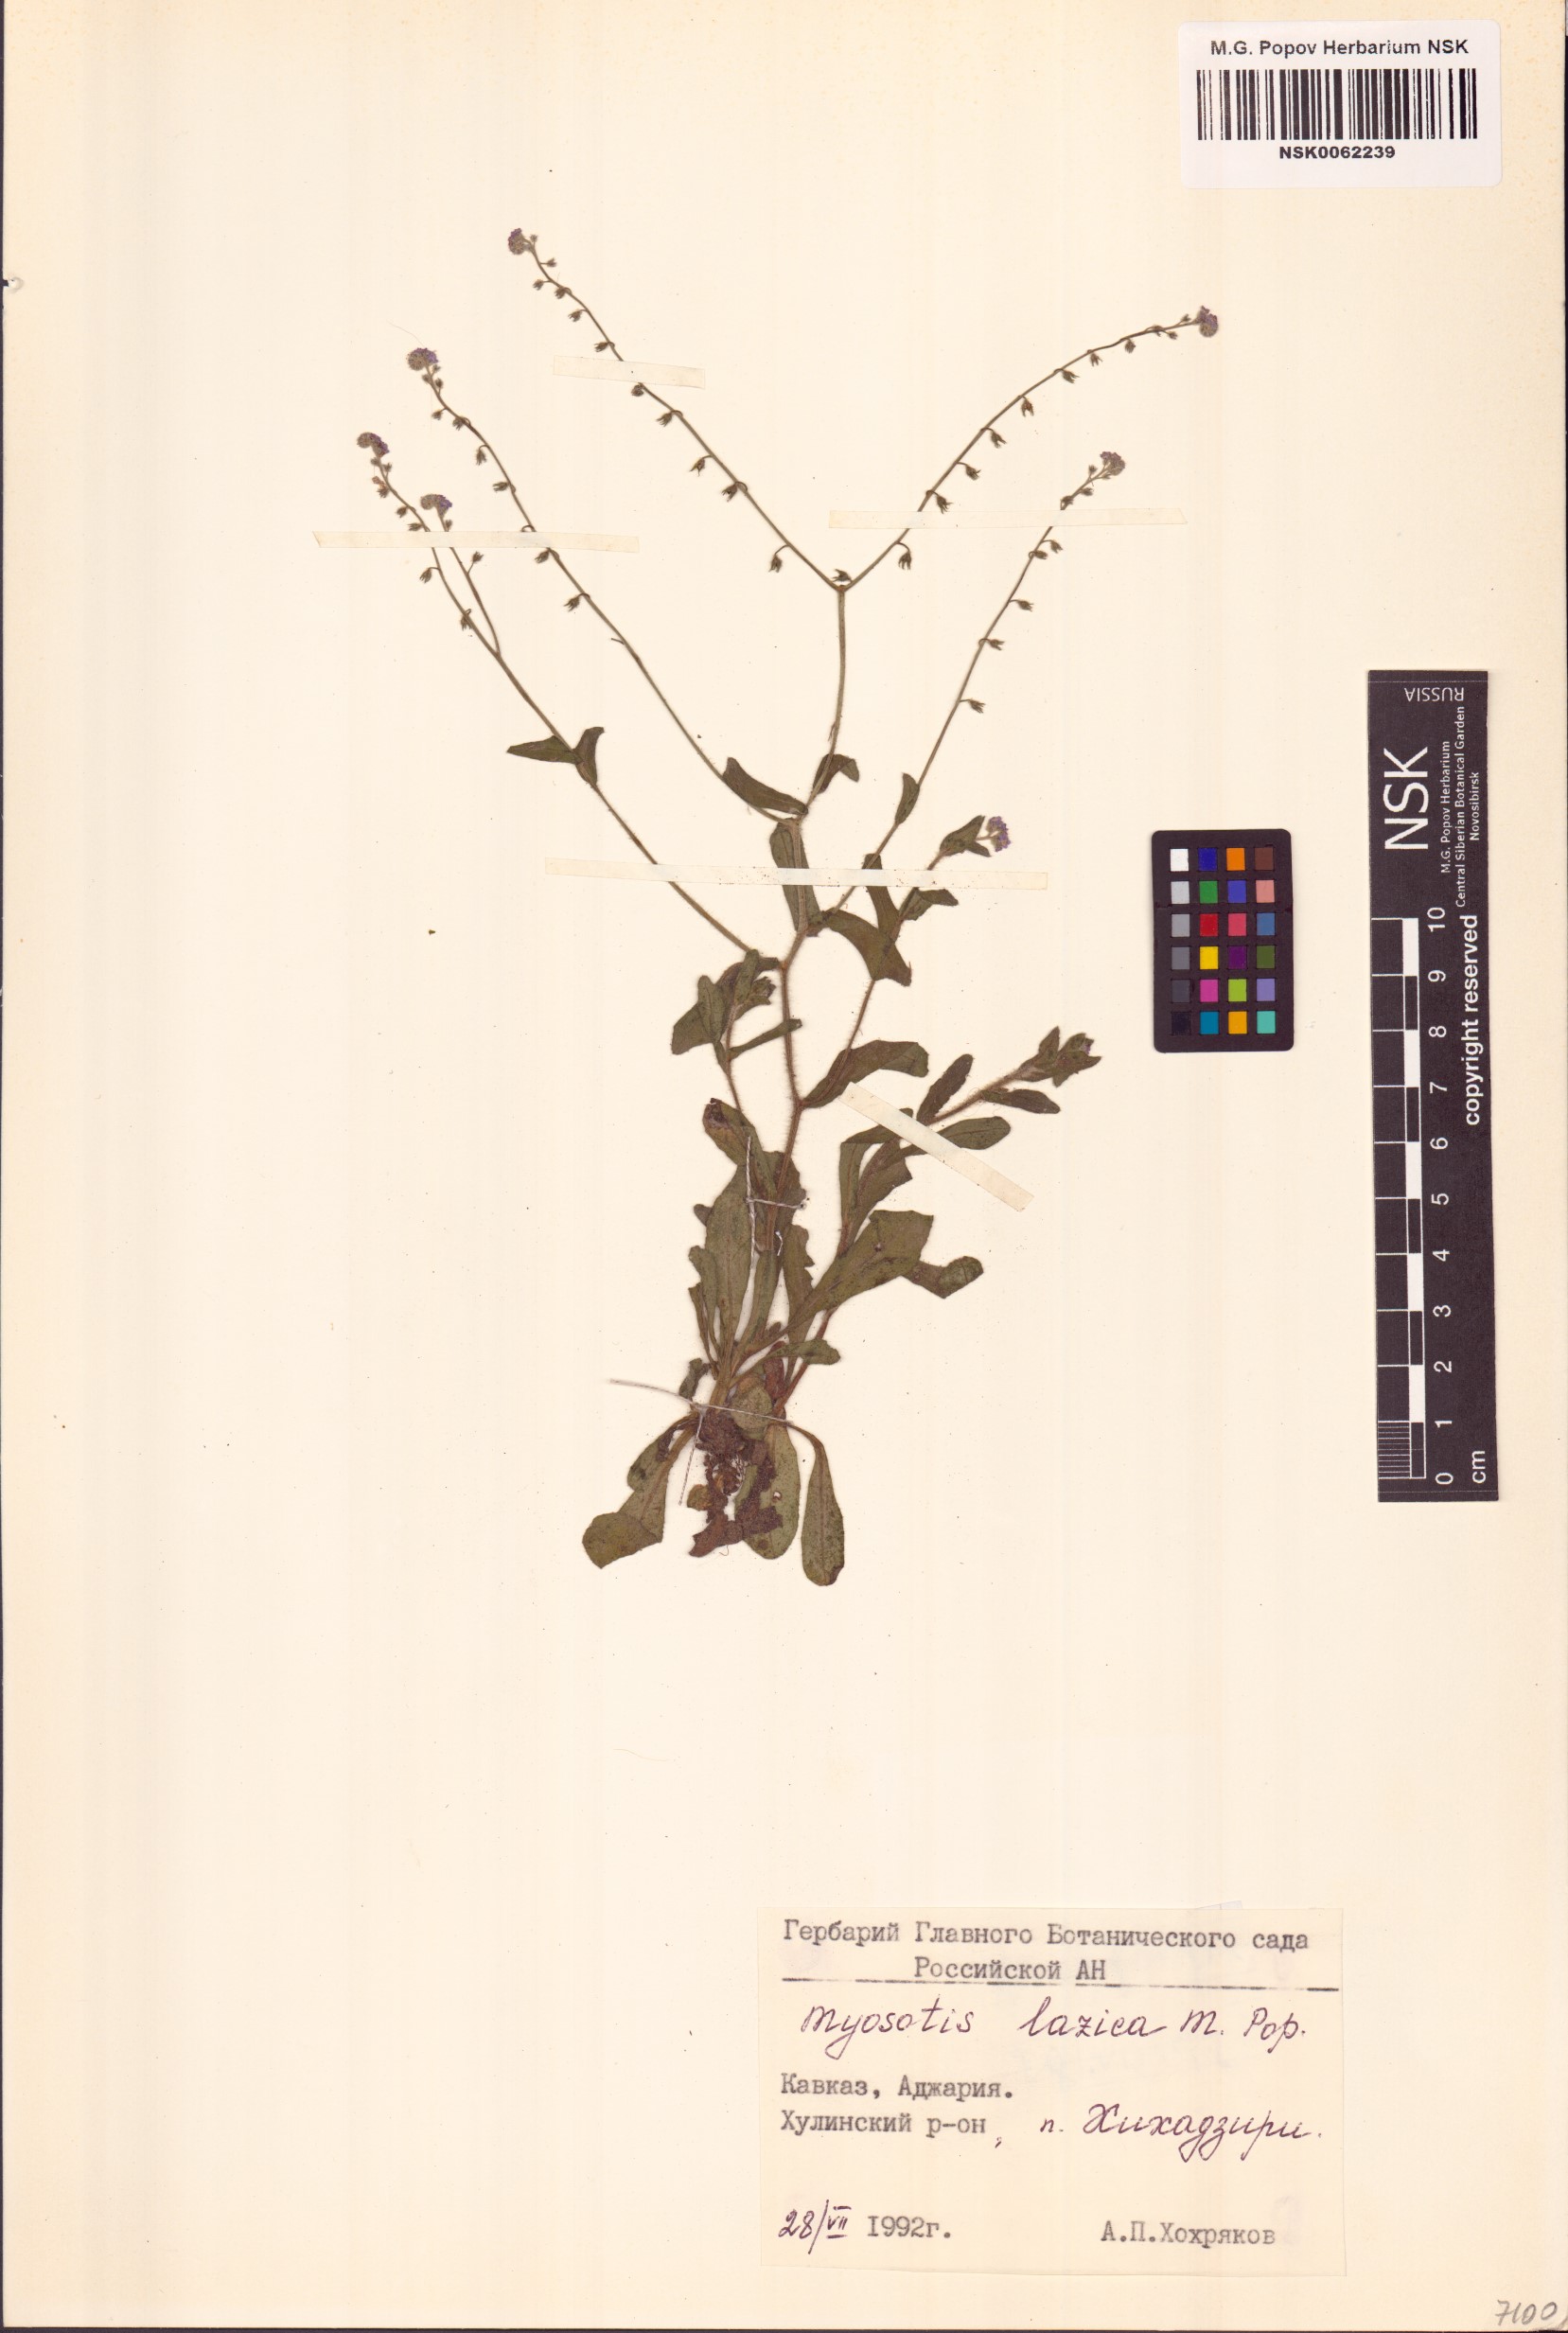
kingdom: Plantae
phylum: Tracheophyta
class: Magnoliopsida
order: Boraginales
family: Boraginaceae
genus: Myosotis
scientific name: Myosotis lazica
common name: Lazetian forget-me-not
